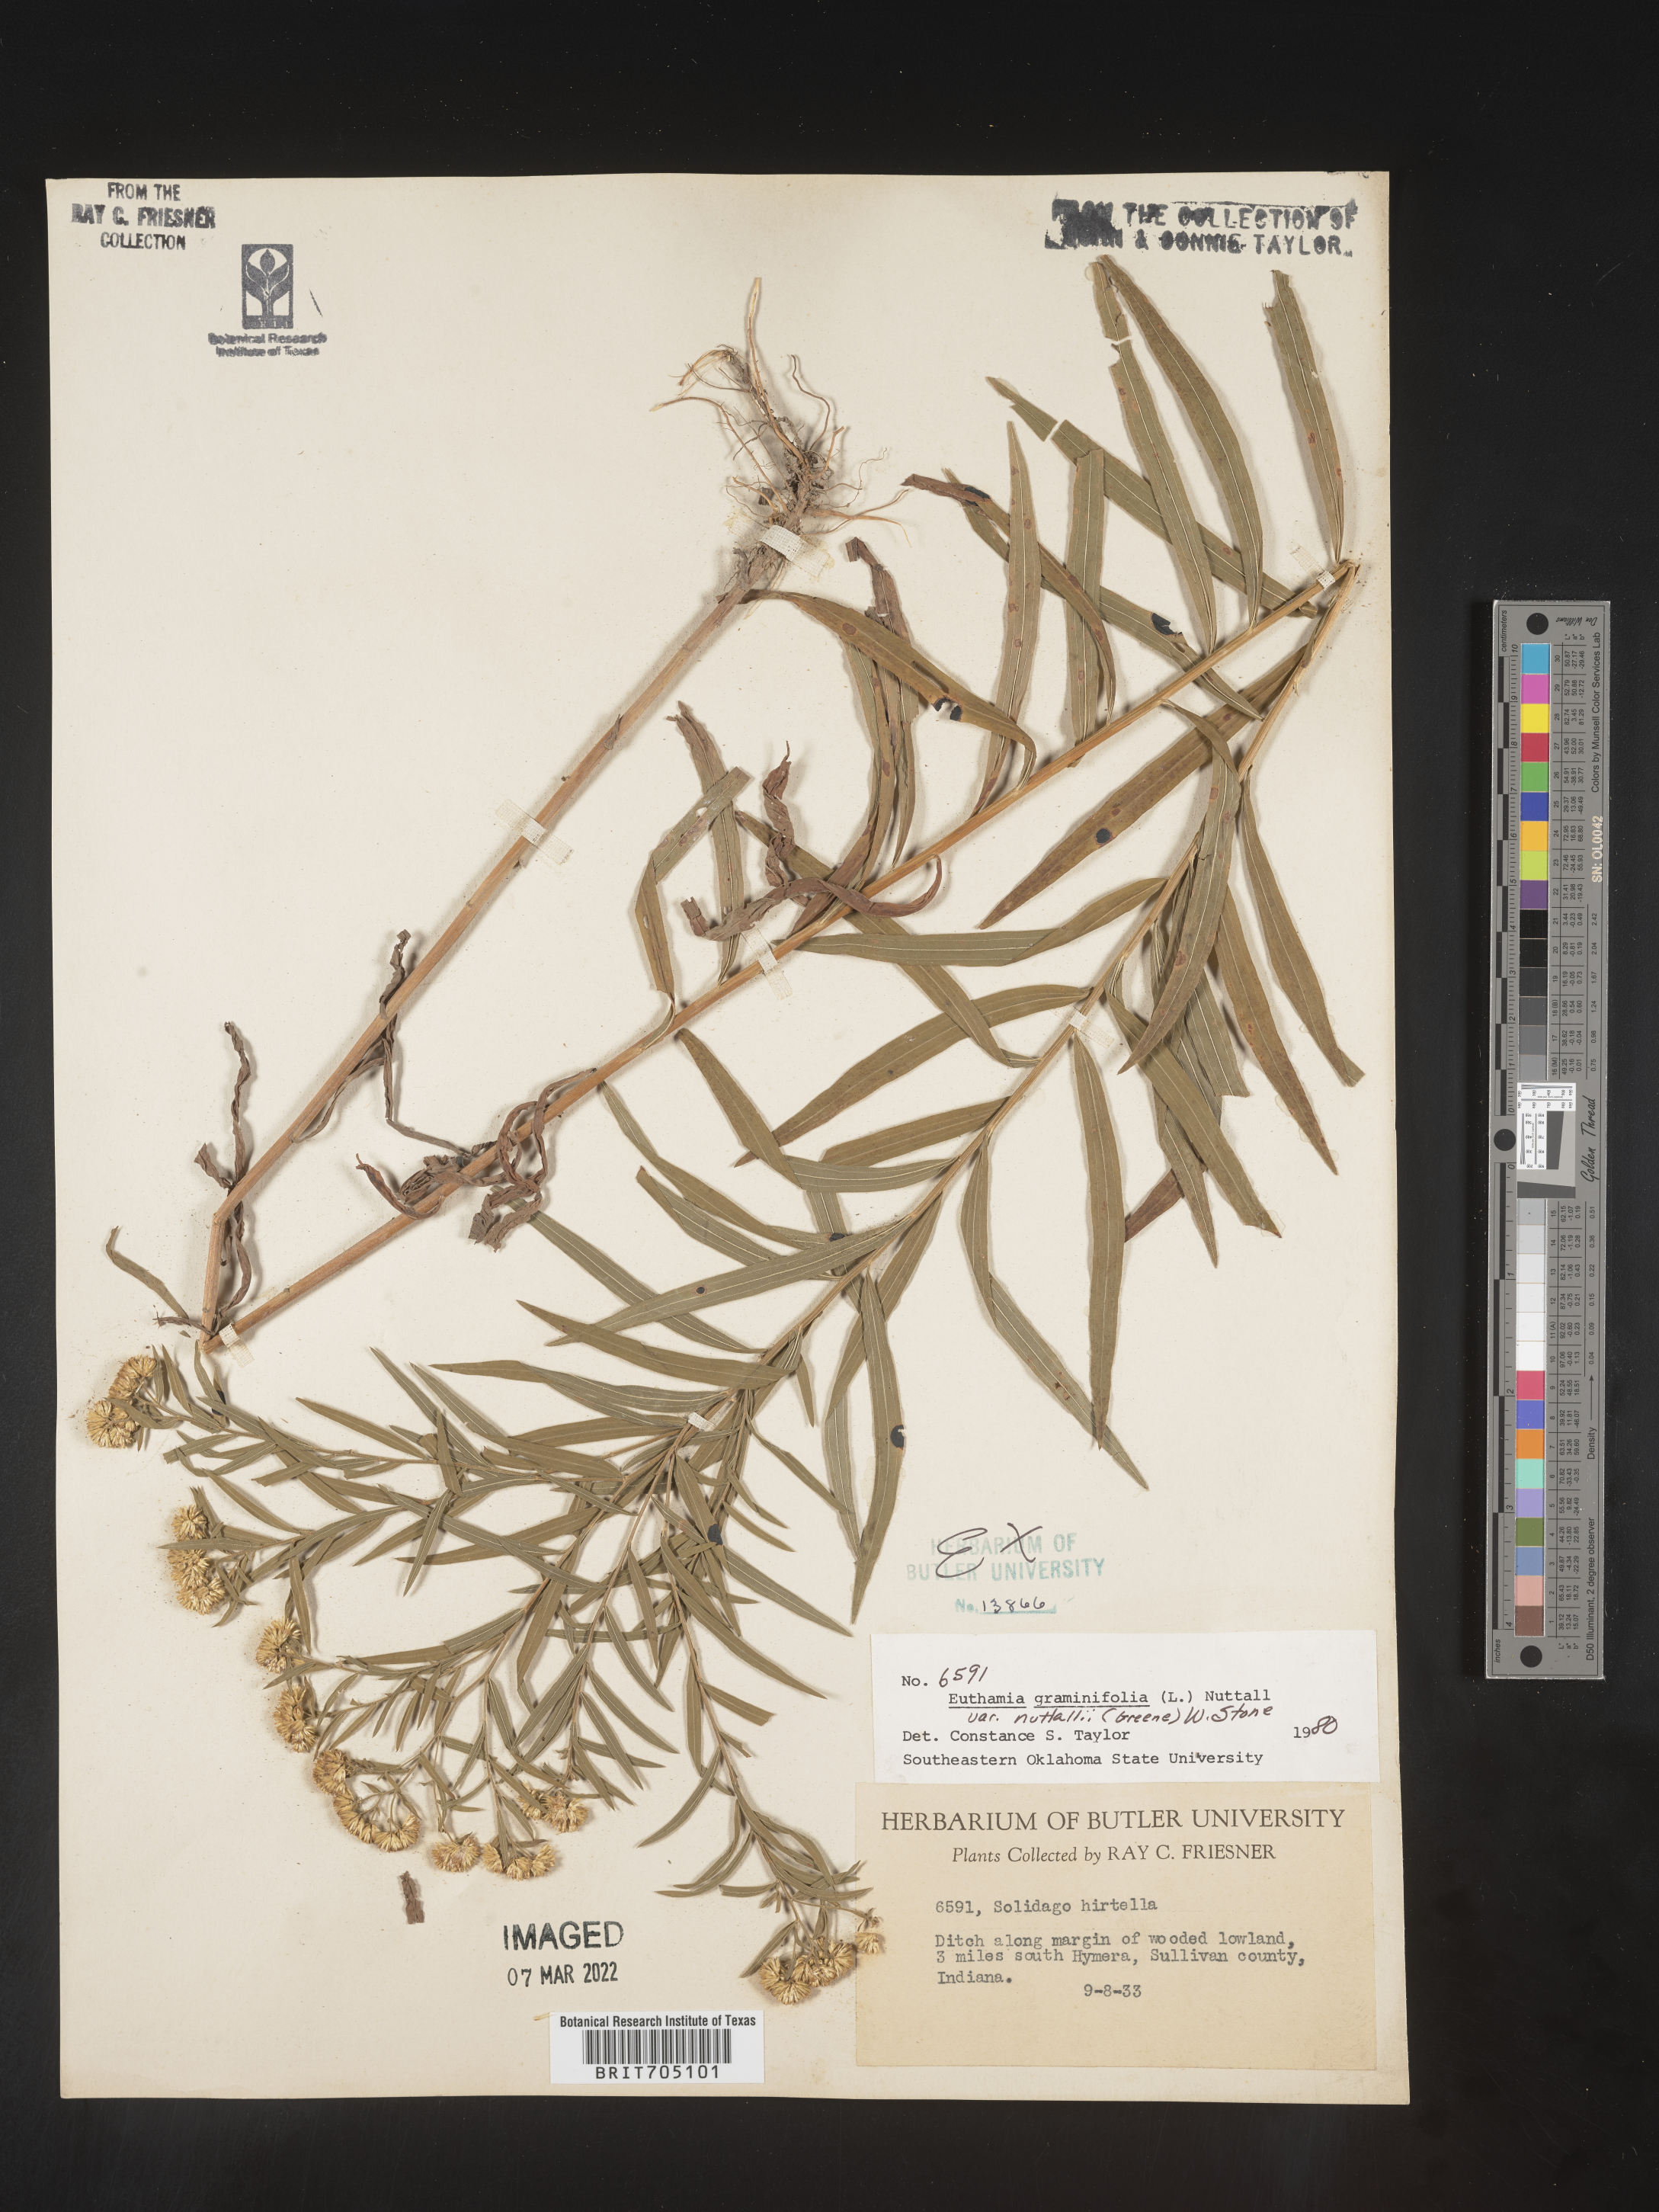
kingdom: Plantae
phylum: Tracheophyta
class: Magnoliopsida
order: Asterales
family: Asteraceae
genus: Euthamia
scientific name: Euthamia graminifolia
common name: Common goldentop
